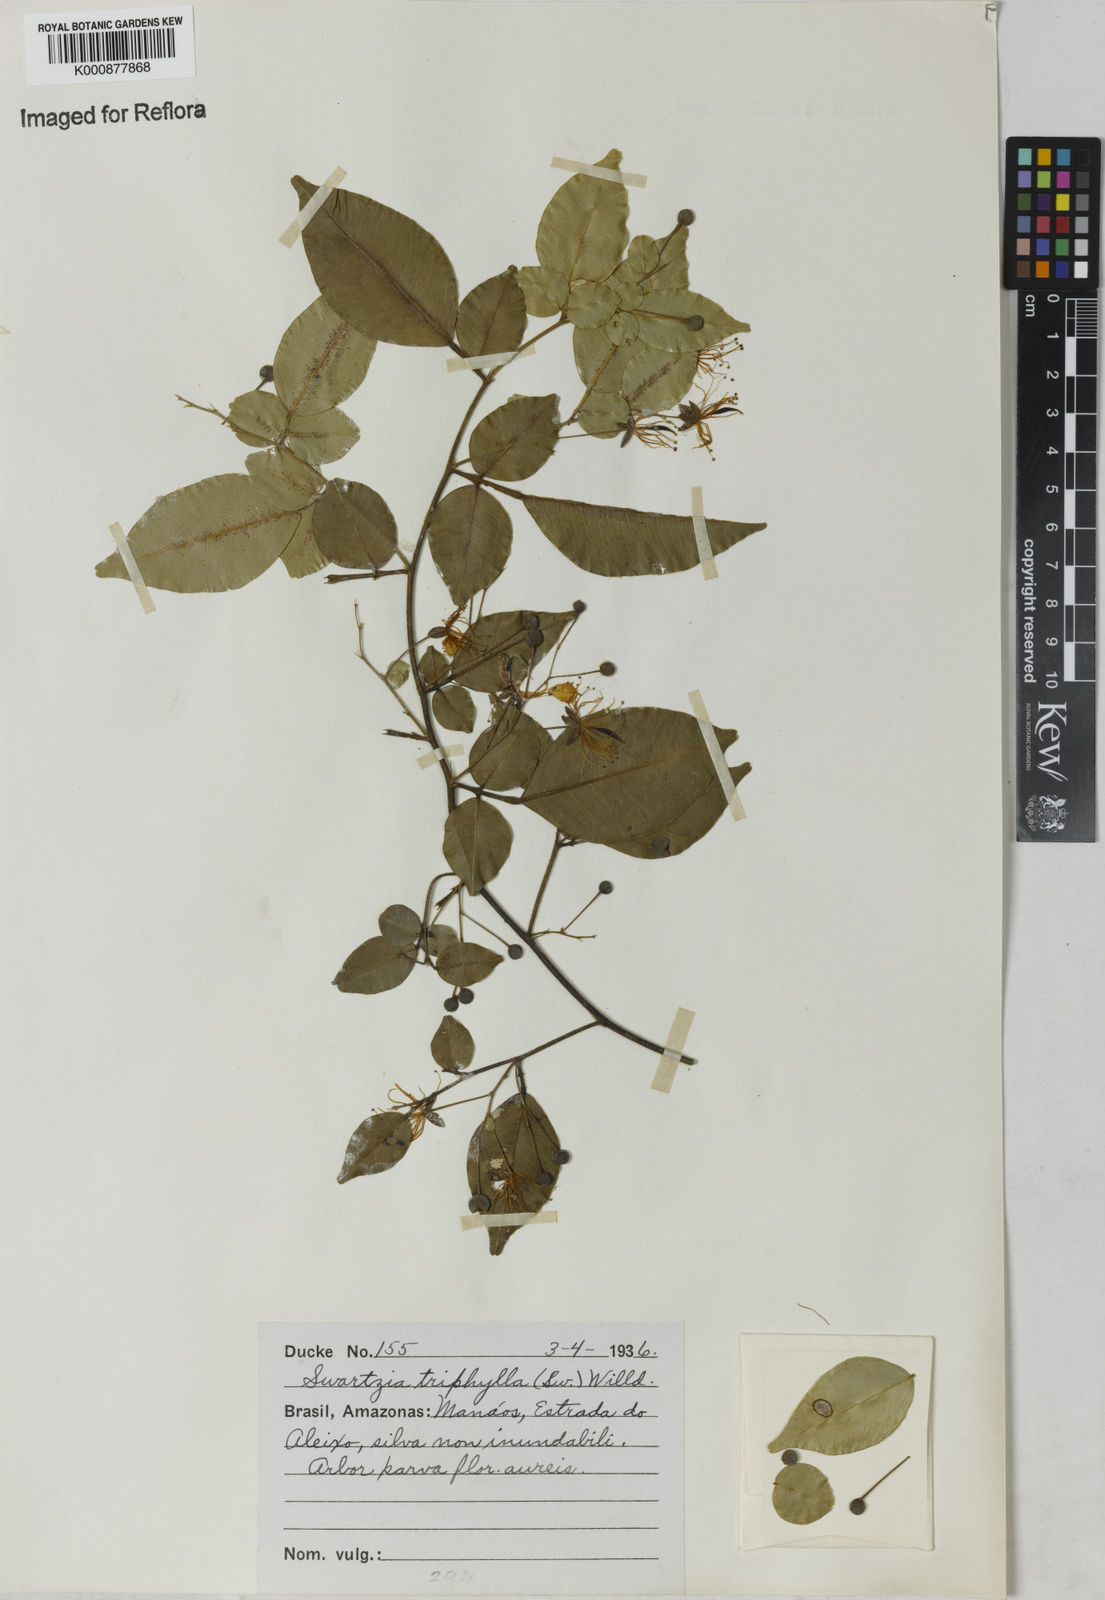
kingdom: Plantae
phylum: Tracheophyta
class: Magnoliopsida
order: Fabales
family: Fabaceae
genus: Swartzia
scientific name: Swartzia arborescens
